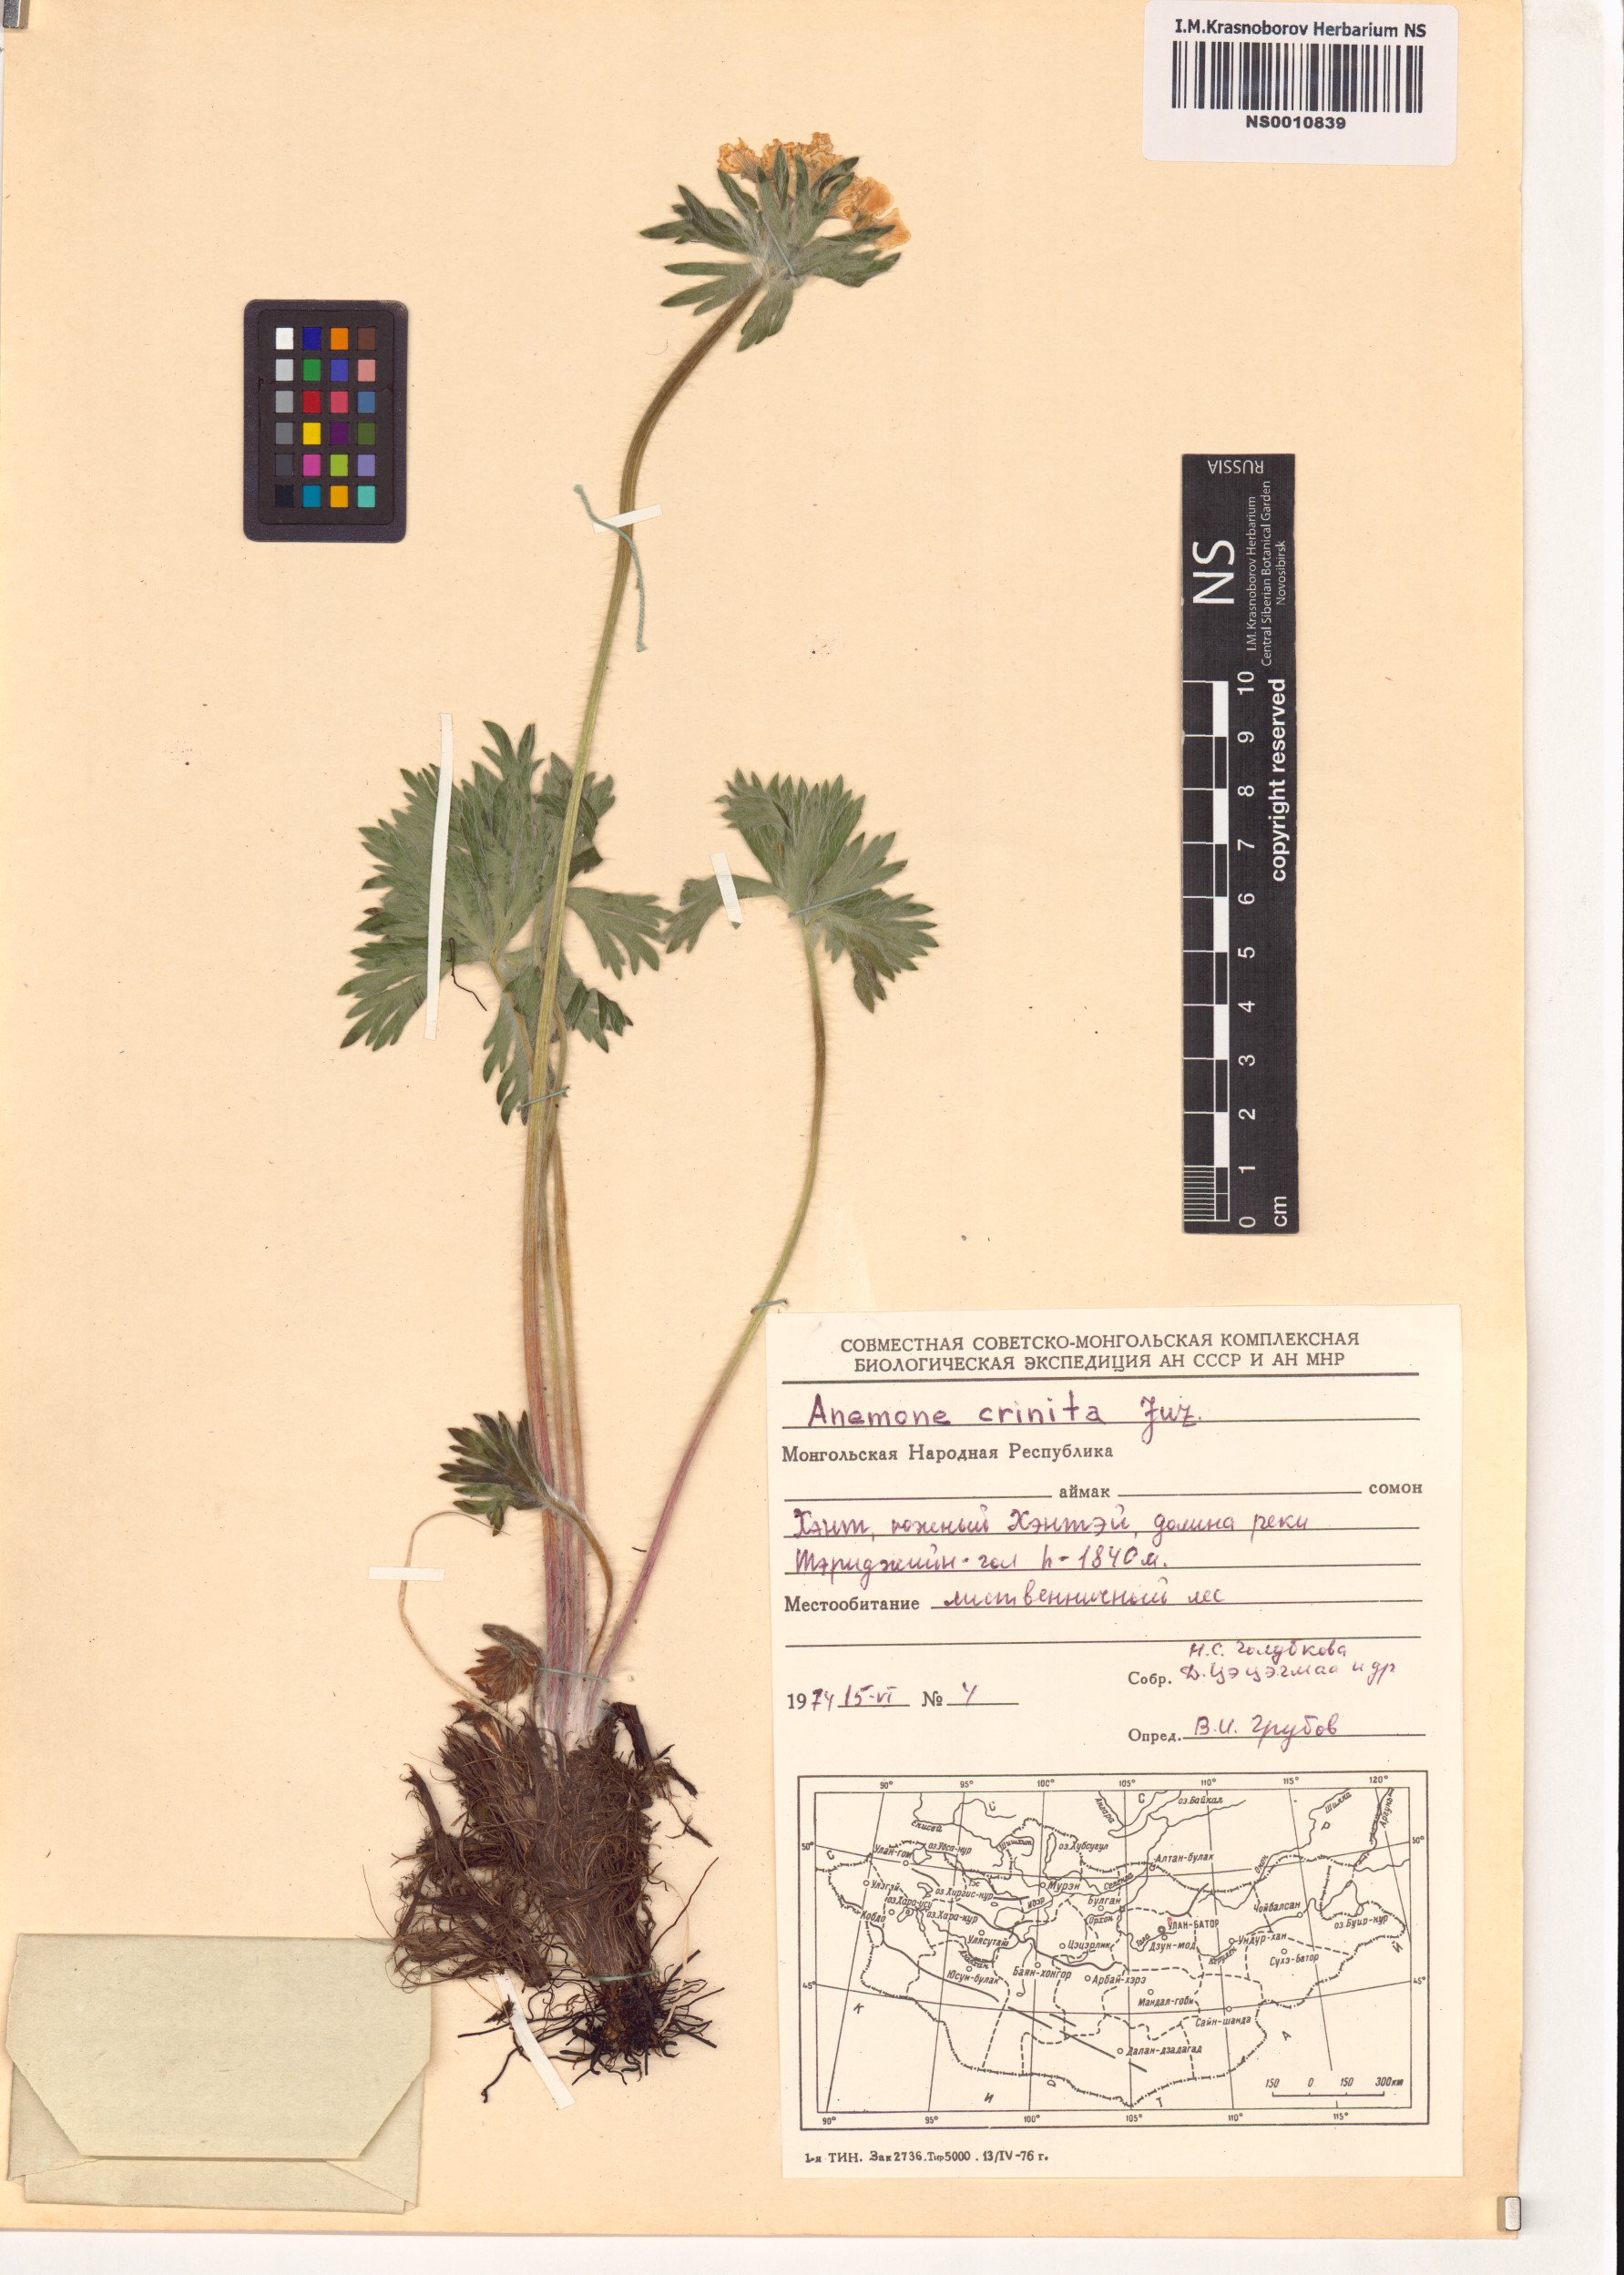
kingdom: Plantae
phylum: Tracheophyta
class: Magnoliopsida
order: Ranunculales
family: Ranunculaceae
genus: Anemonastrum
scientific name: Anemonastrum narcissiflorum
